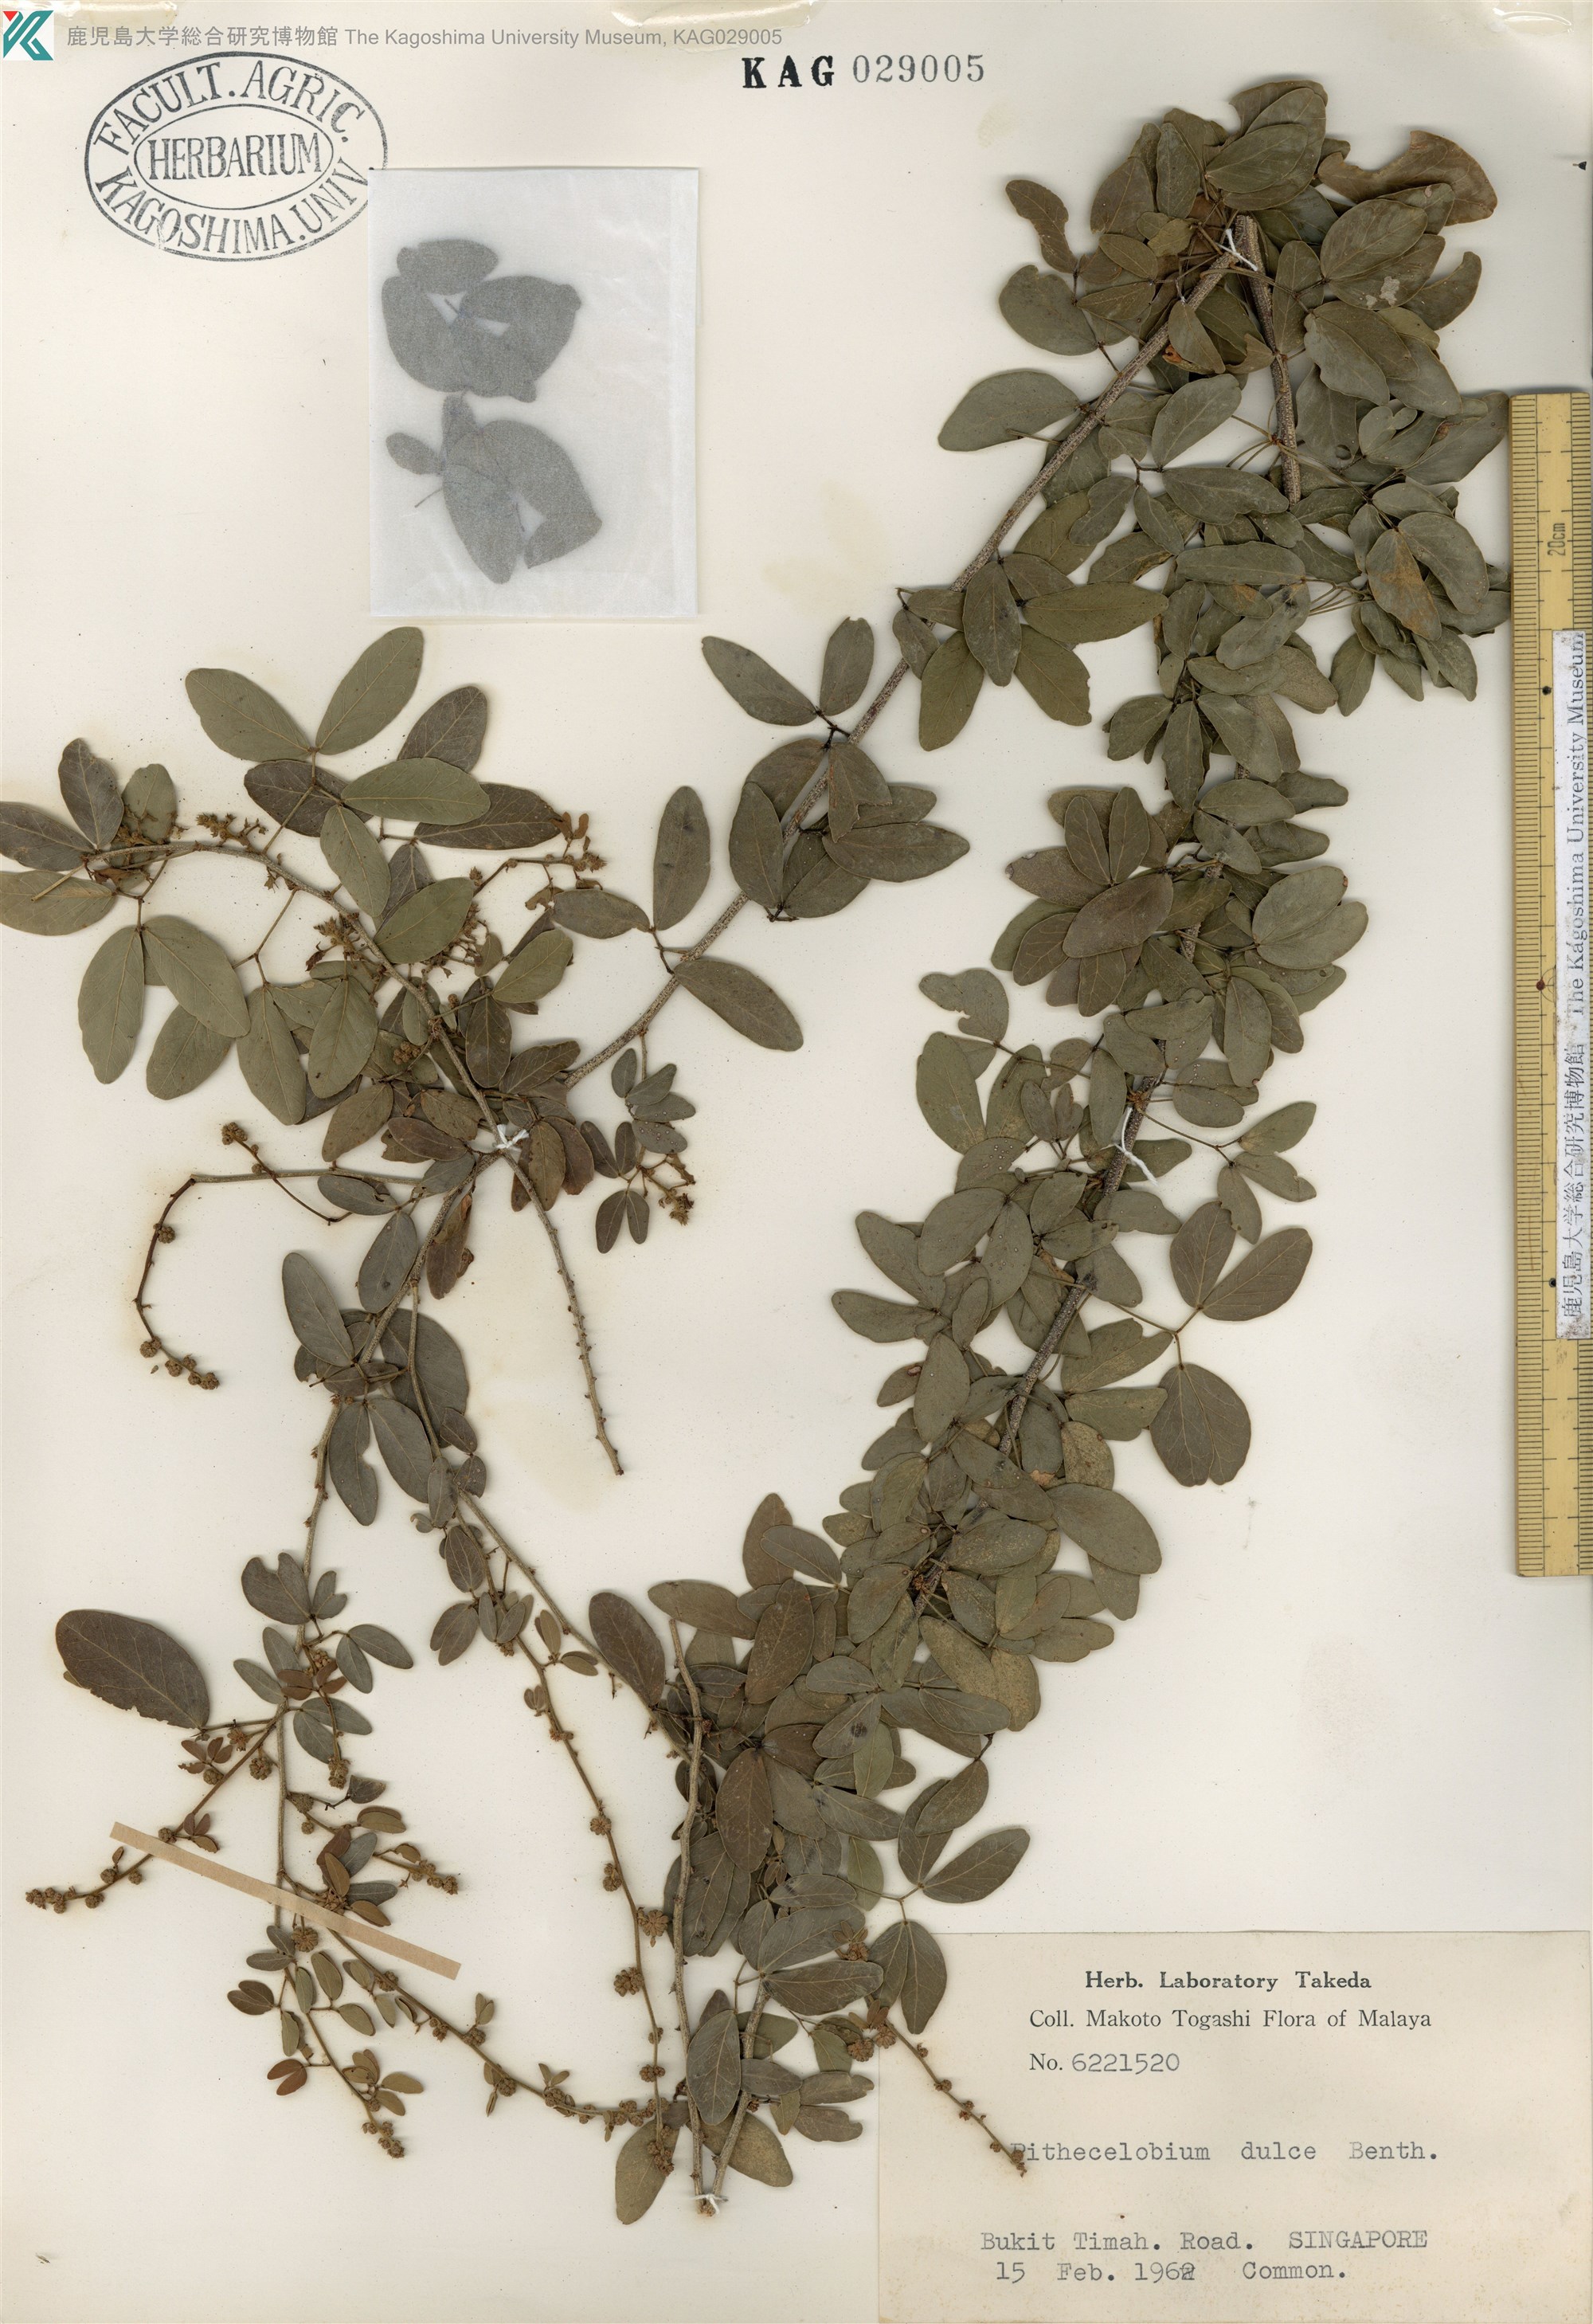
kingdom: Plantae
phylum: Tracheophyta
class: Magnoliopsida
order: Fabales
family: Fabaceae
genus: Pithecellobium
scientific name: Pithecellobium dulce
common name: Monkeypod
